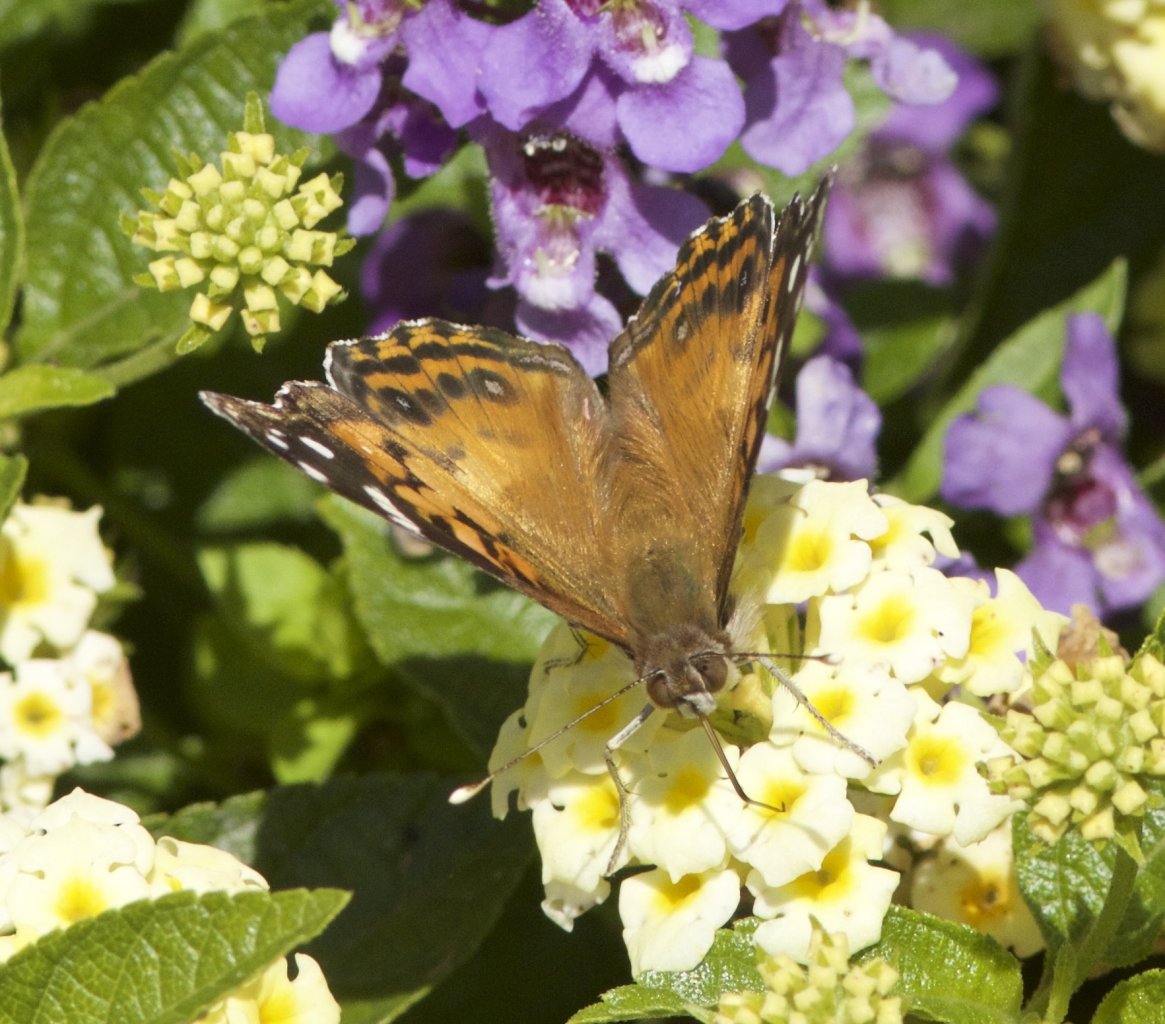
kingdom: Animalia
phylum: Arthropoda
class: Insecta
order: Lepidoptera
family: Nymphalidae
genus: Vanessa
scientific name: Vanessa virginiensis
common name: American Lady
